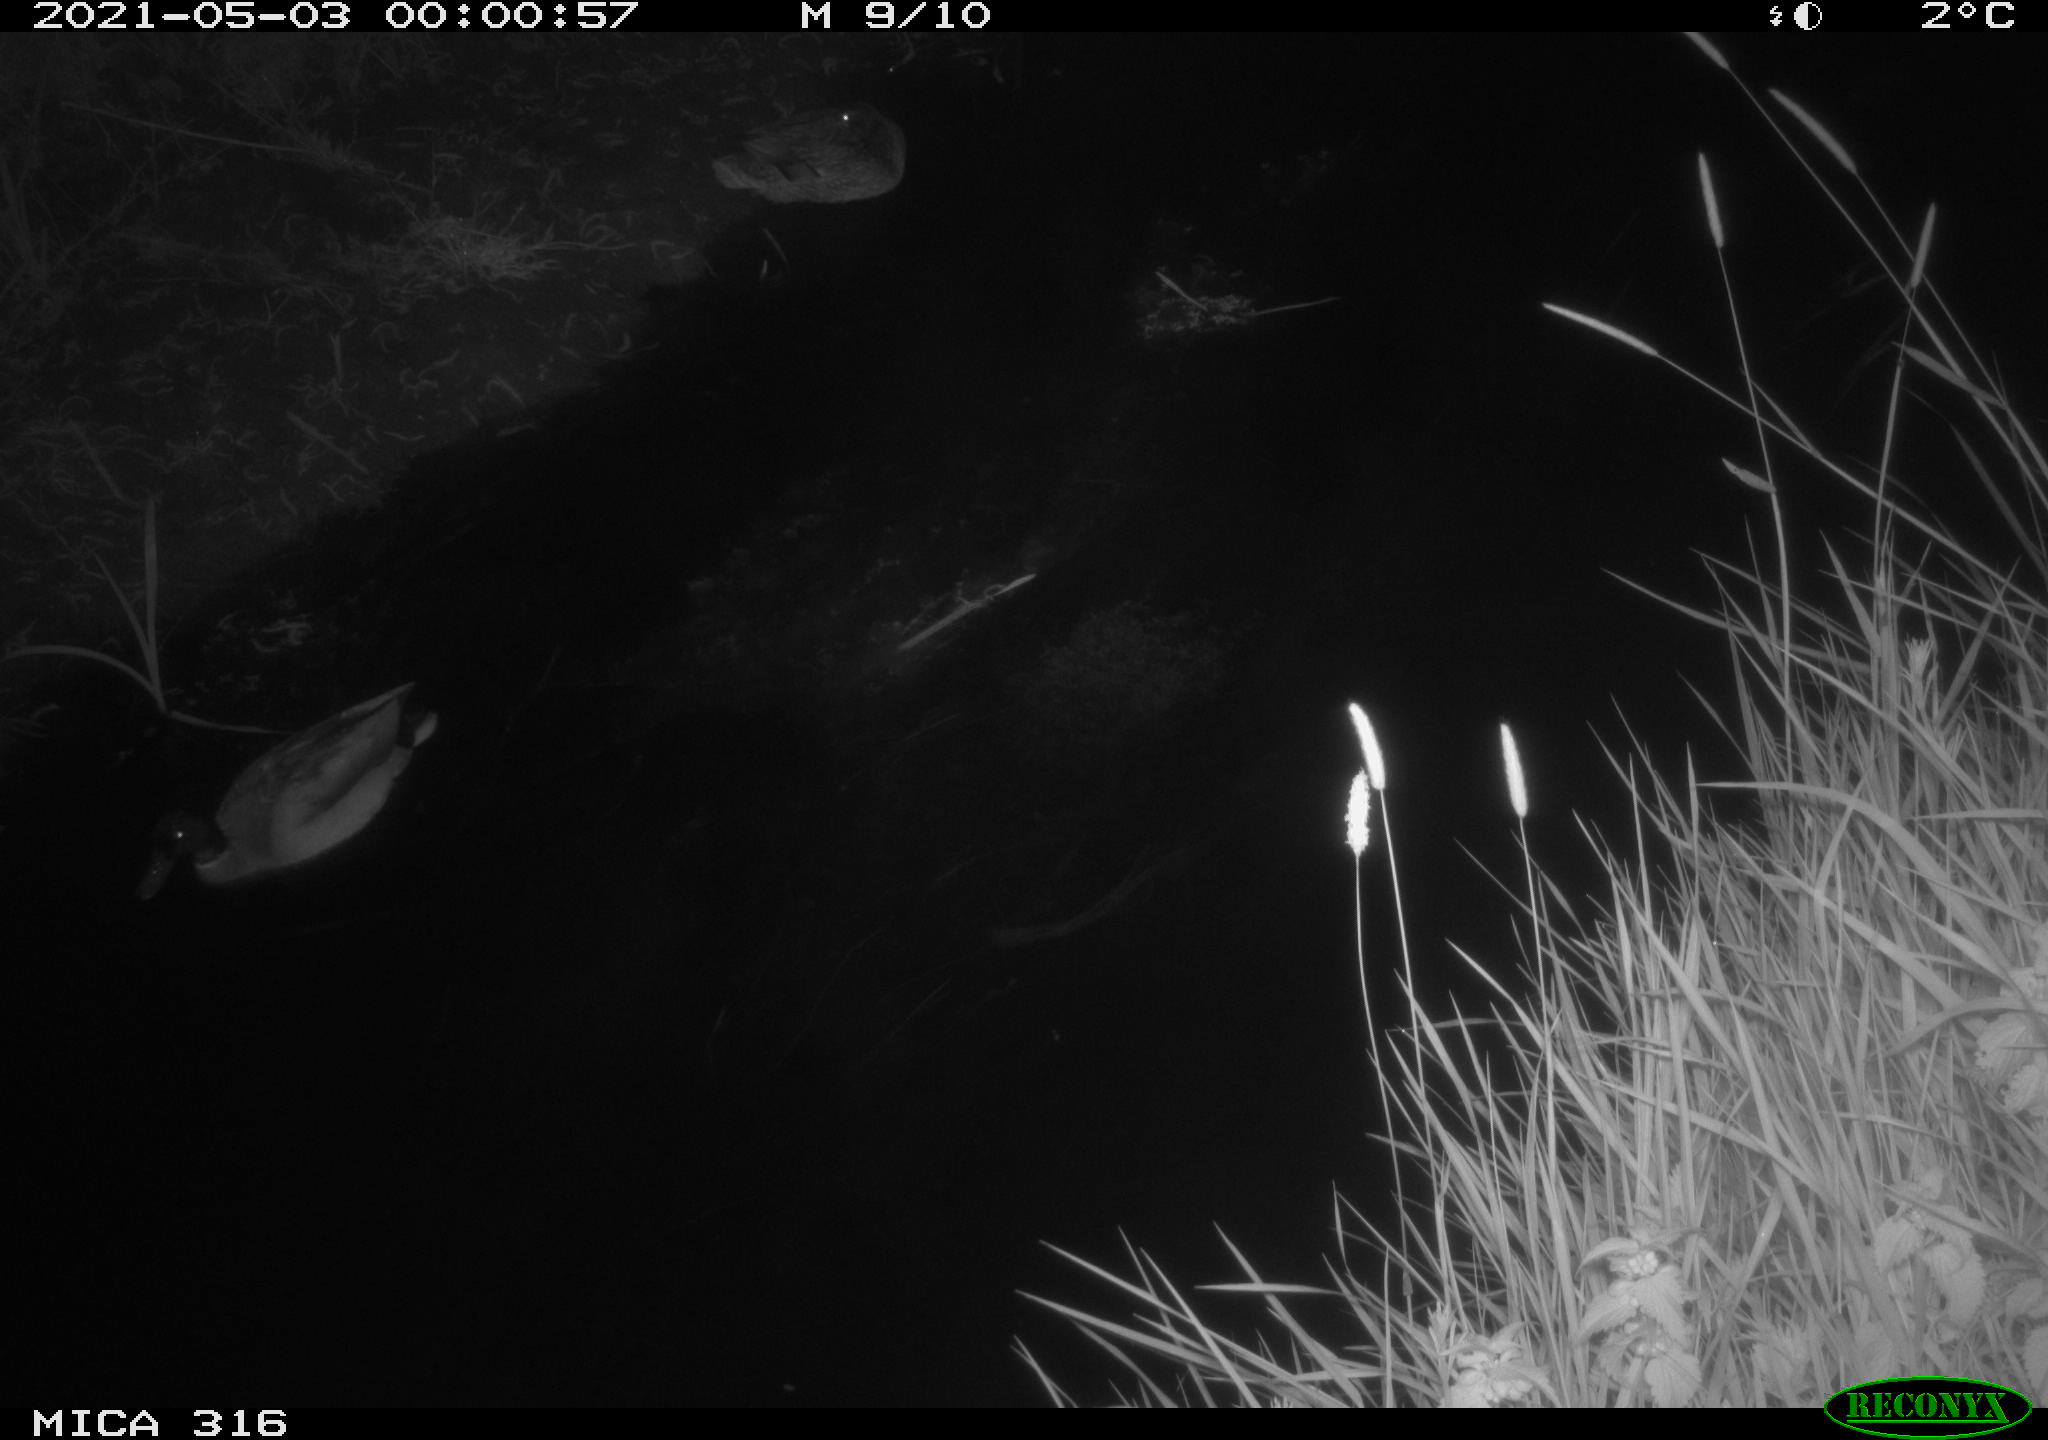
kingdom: Animalia
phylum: Chordata
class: Aves
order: Anseriformes
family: Anatidae
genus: Anas
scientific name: Anas platyrhynchos
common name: Mallard
